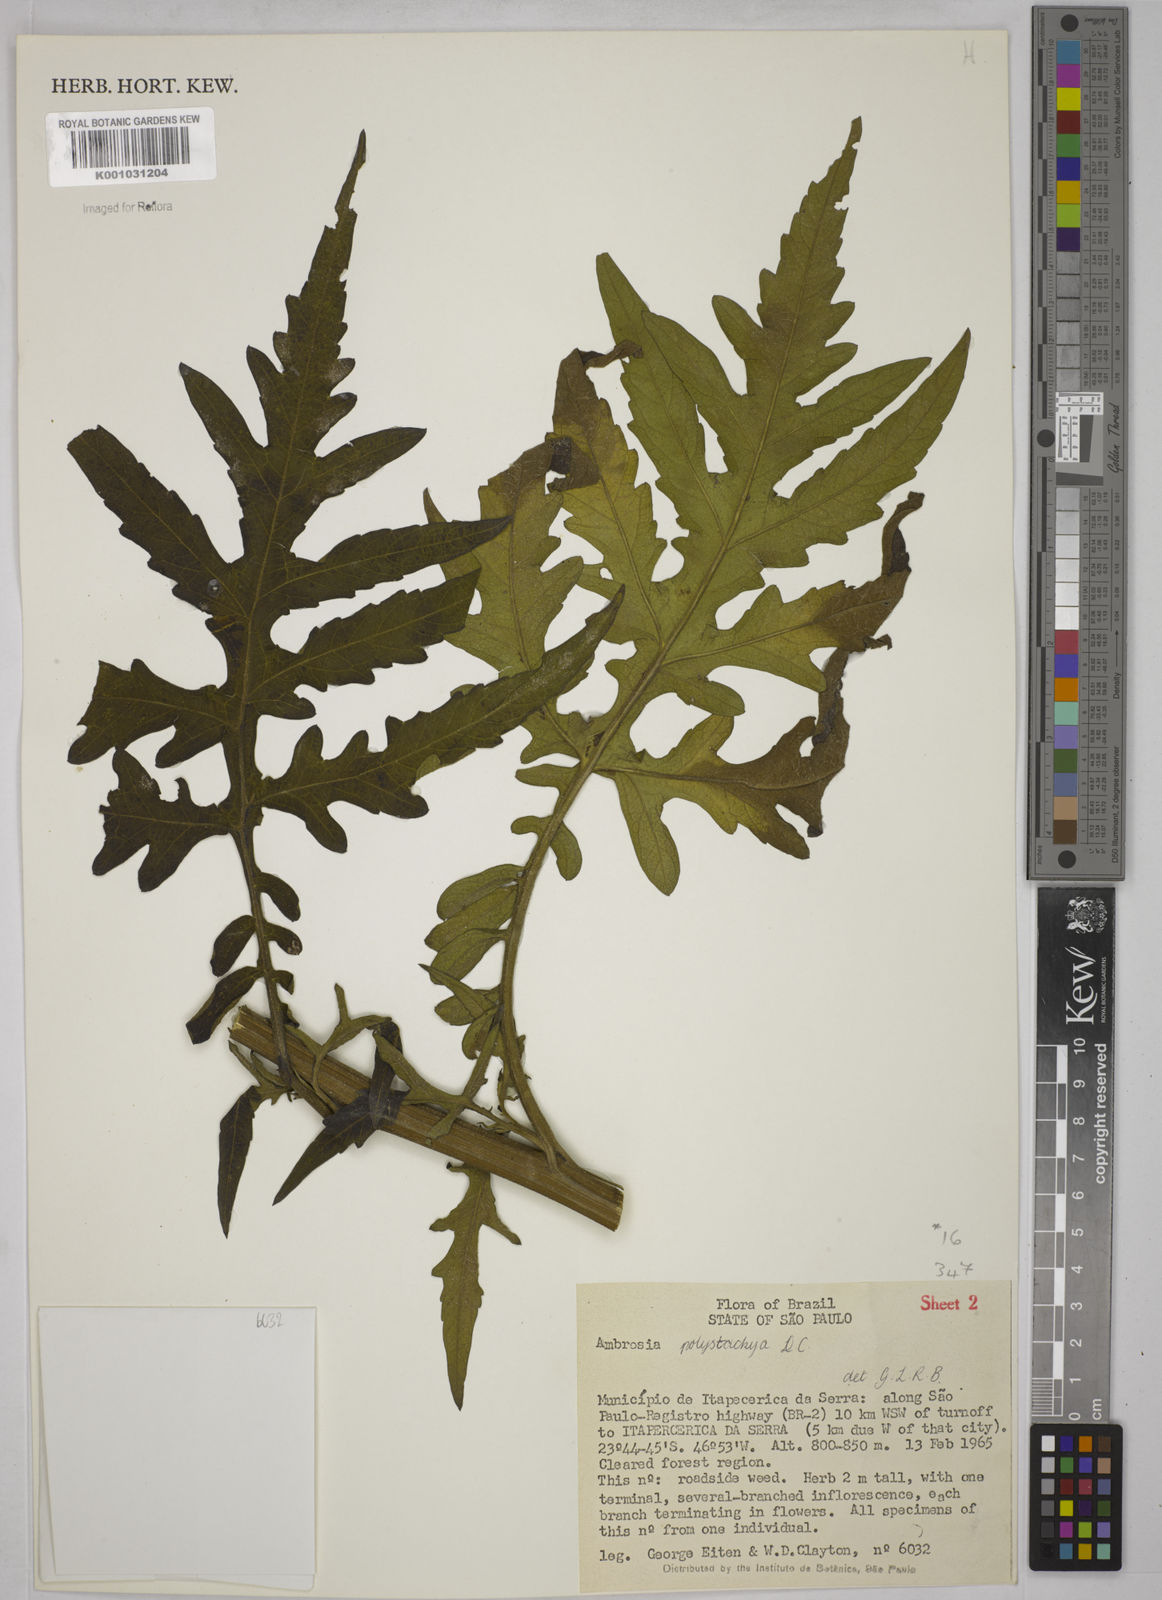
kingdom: Plantae
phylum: Tracheophyta
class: Magnoliopsida
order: Asterales
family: Asteraceae
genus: Ambrosia
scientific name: Ambrosia polystachya
